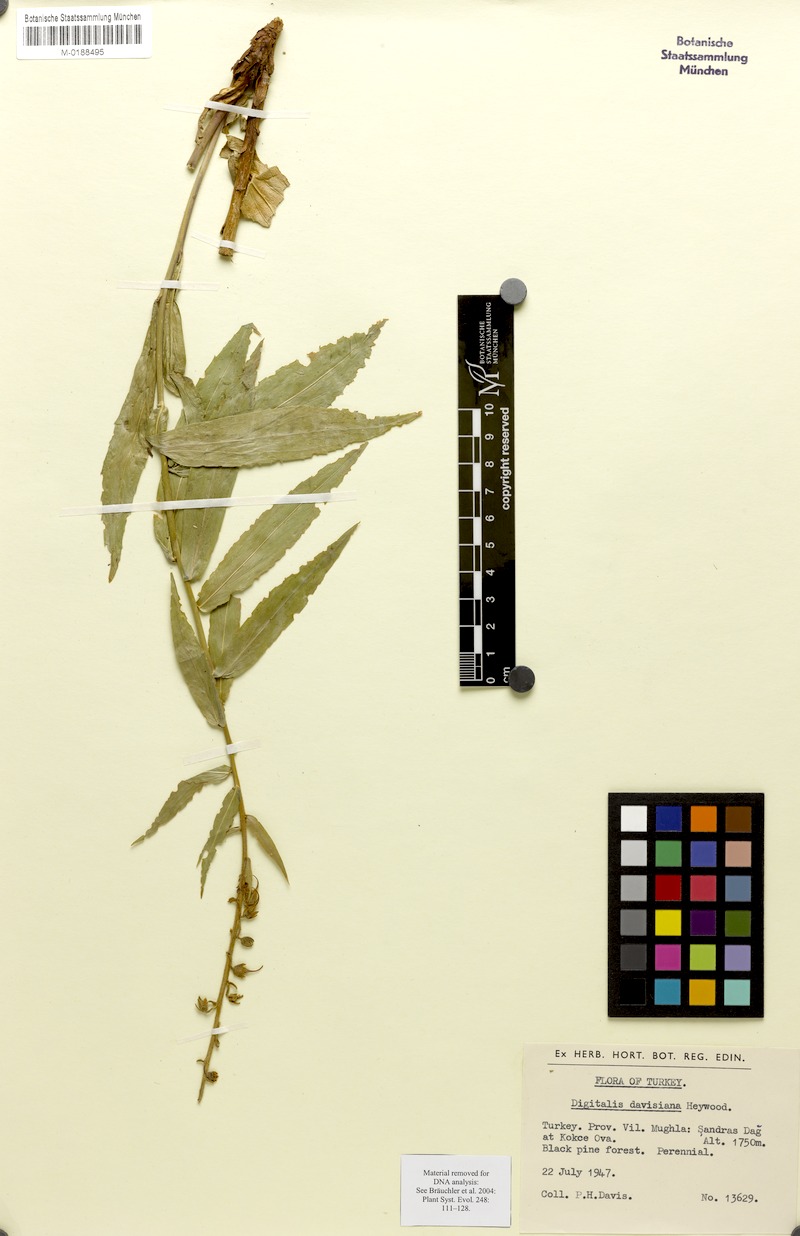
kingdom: Plantae
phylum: Tracheophyta
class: Magnoliopsida
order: Lamiales
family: Plantaginaceae
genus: Digitalis
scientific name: Digitalis davisiana
